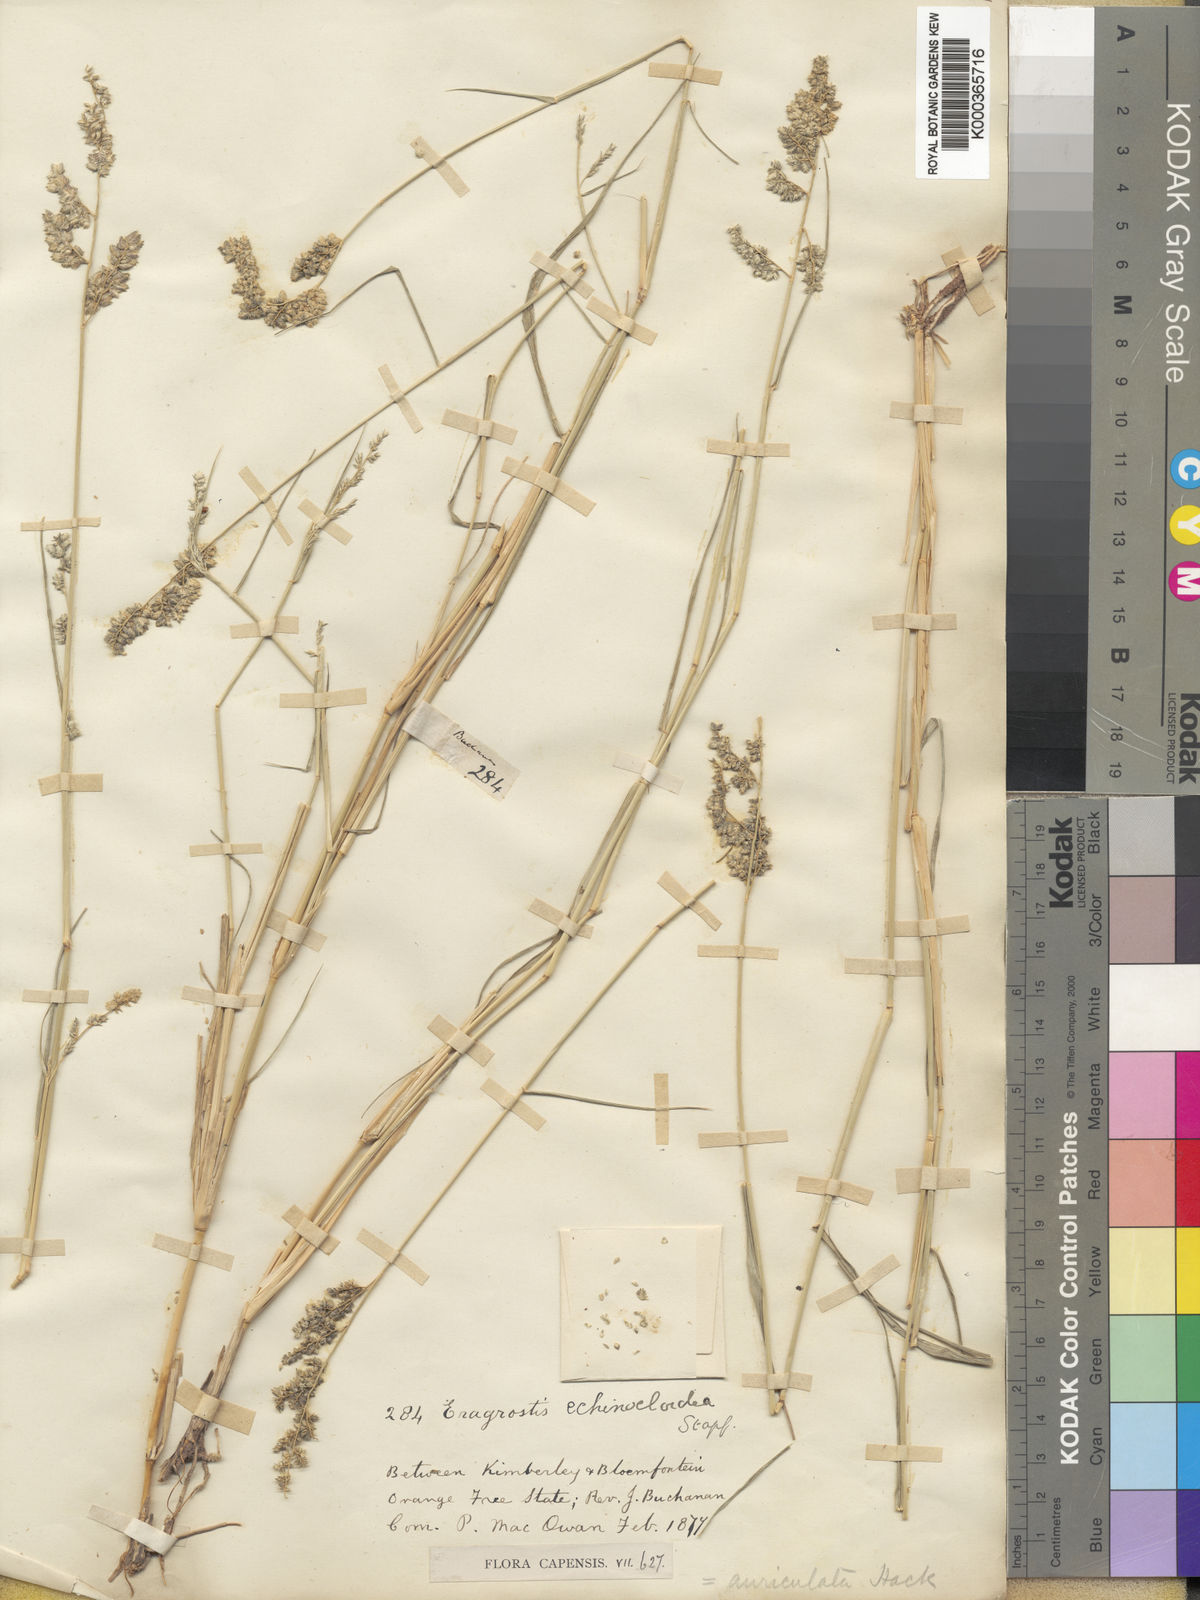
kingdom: Plantae
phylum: Tracheophyta
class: Liliopsida
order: Poales
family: Poaceae
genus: Eragrostis
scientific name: Eragrostis echinochloidea
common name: African lovegrass
